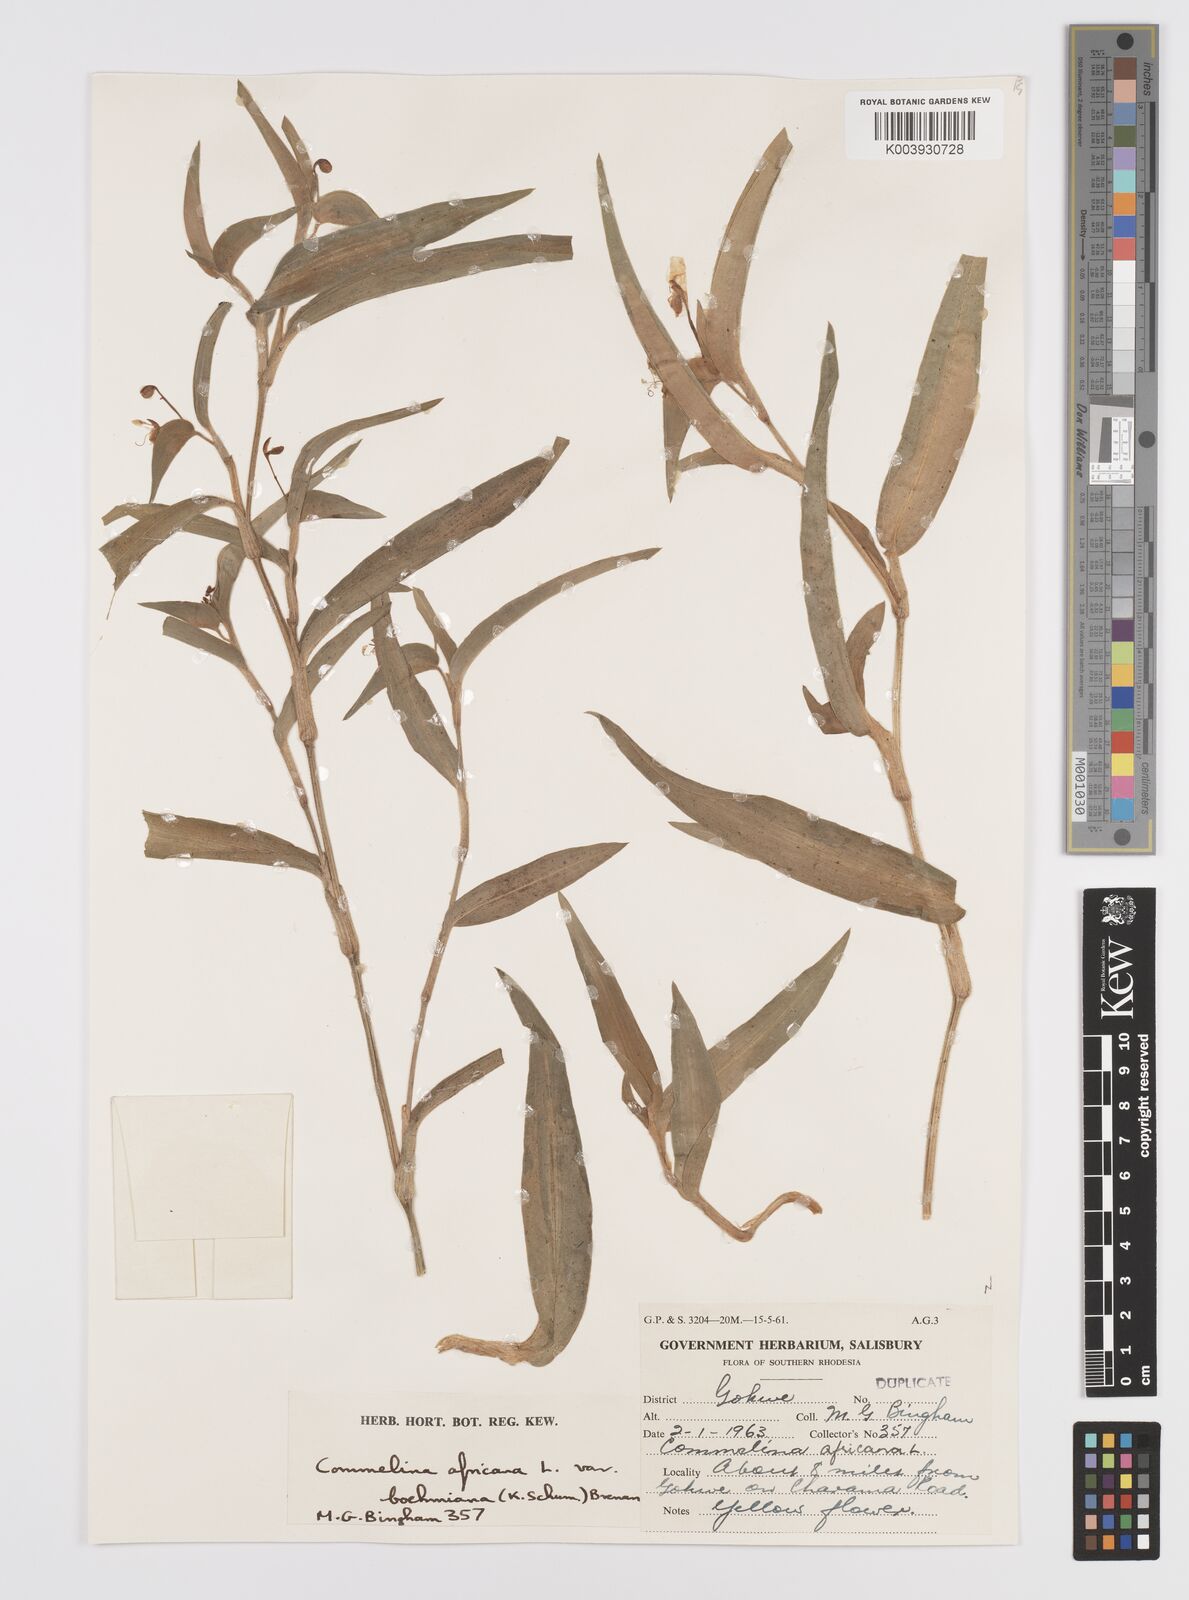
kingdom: Plantae
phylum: Tracheophyta
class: Liliopsida
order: Commelinales
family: Commelinaceae
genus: Commelina
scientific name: Commelina africana
